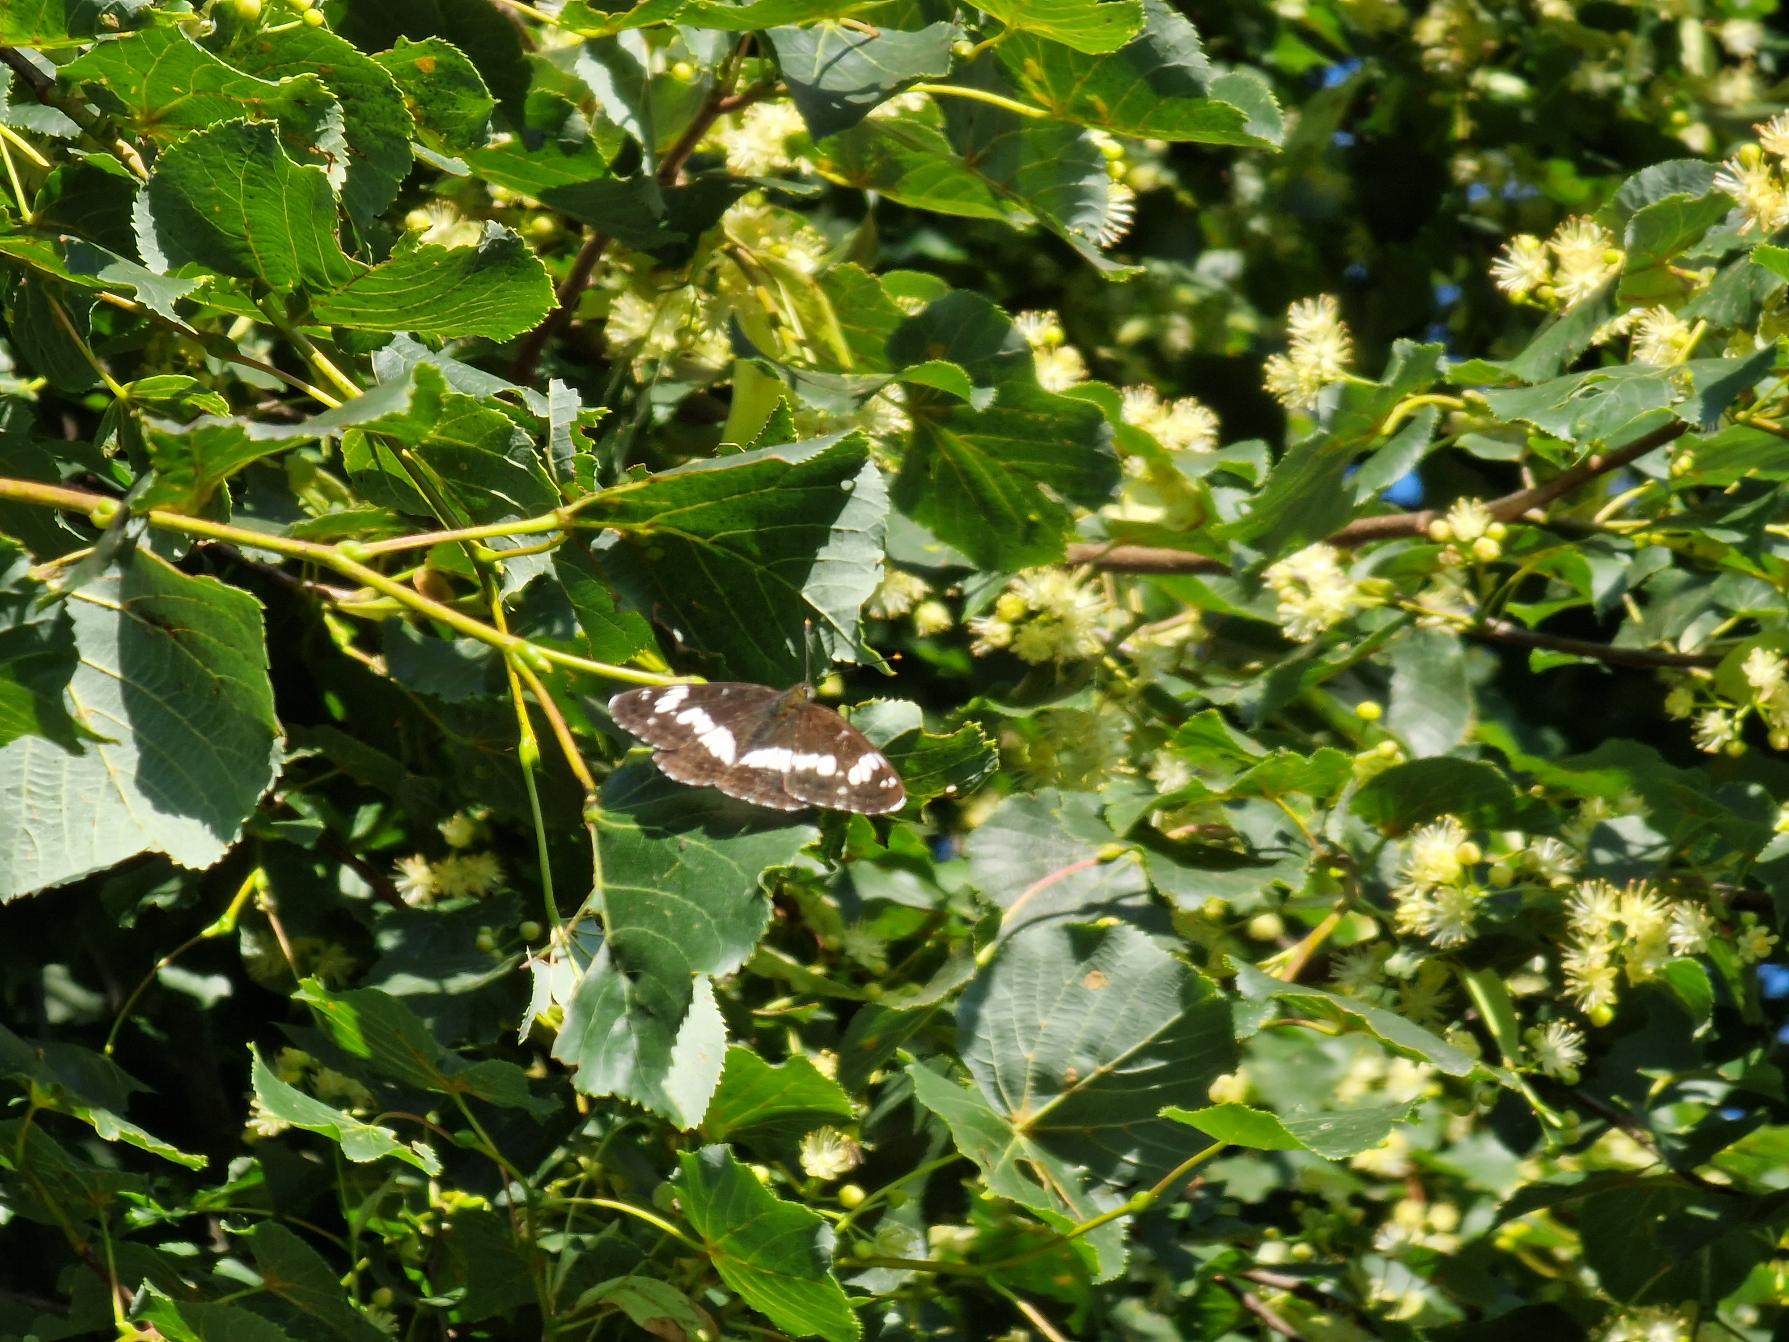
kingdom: Animalia
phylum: Arthropoda
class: Insecta
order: Lepidoptera
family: Nymphalidae
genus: Ladoga
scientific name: Ladoga camilla
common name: Hvid admiral
